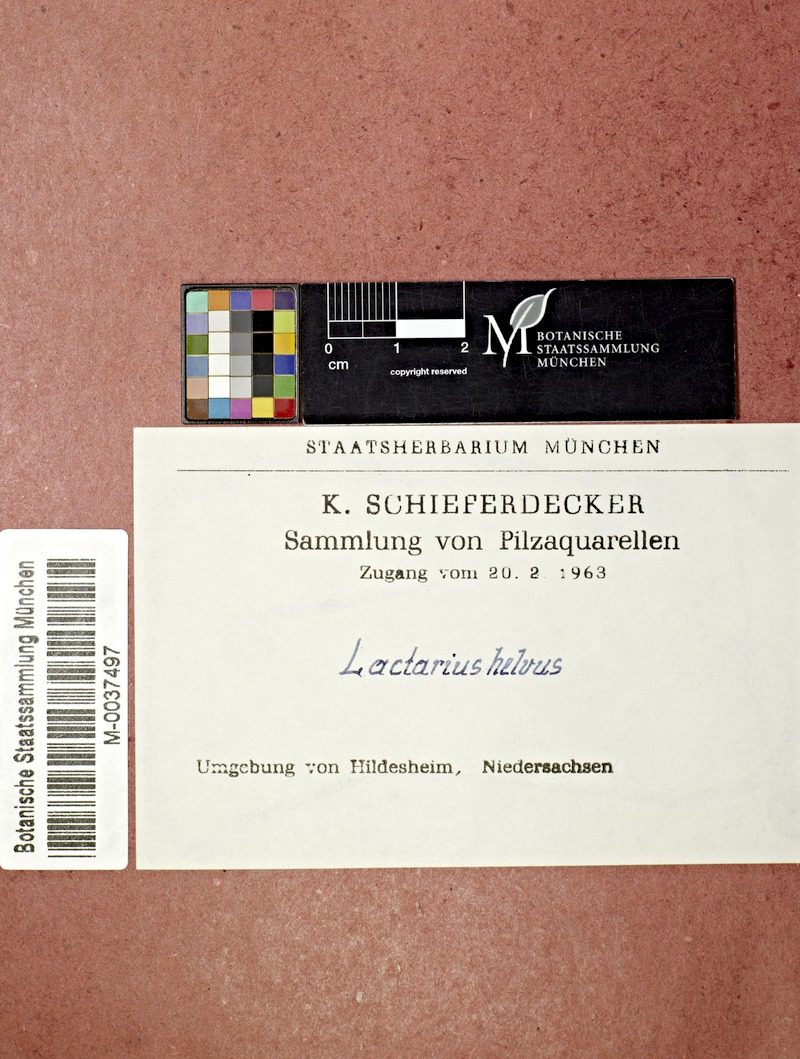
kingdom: Fungi
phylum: Basidiomycota
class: Agaricomycetes
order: Russulales
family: Russulaceae
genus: Lactarius
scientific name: Lactarius helvus
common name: Fenugreek milkcap
